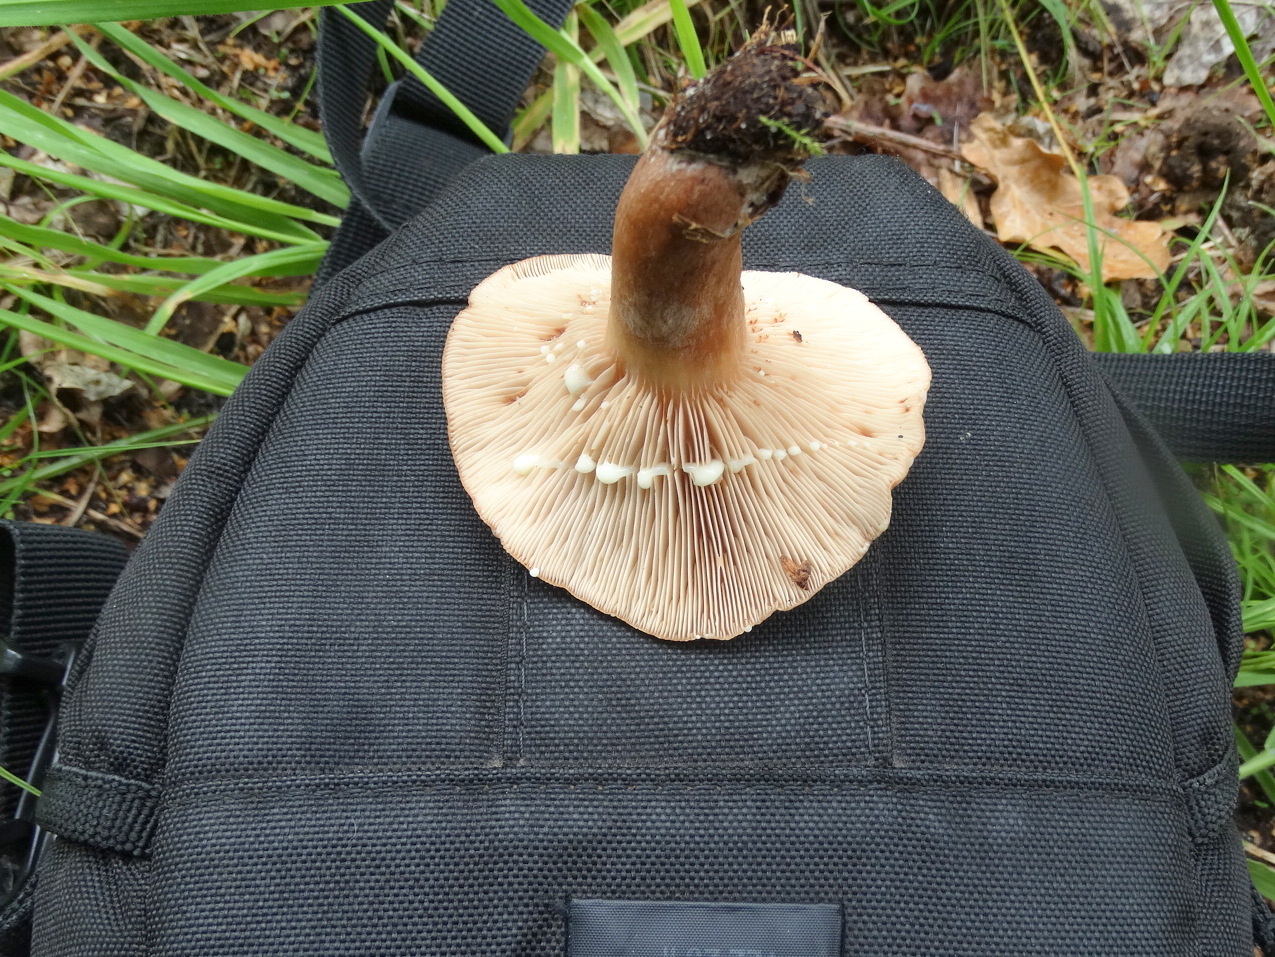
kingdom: Fungi
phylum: Basidiomycota
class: Agaricomycetes
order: Russulales
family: Russulaceae
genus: Lactarius
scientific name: Lactarius quietus
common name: ege-mælkehat
